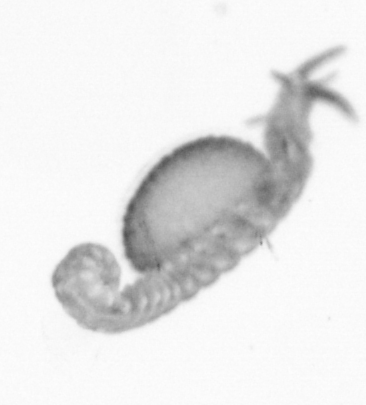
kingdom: Animalia
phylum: Annelida
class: Polychaeta
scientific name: Polychaeta
